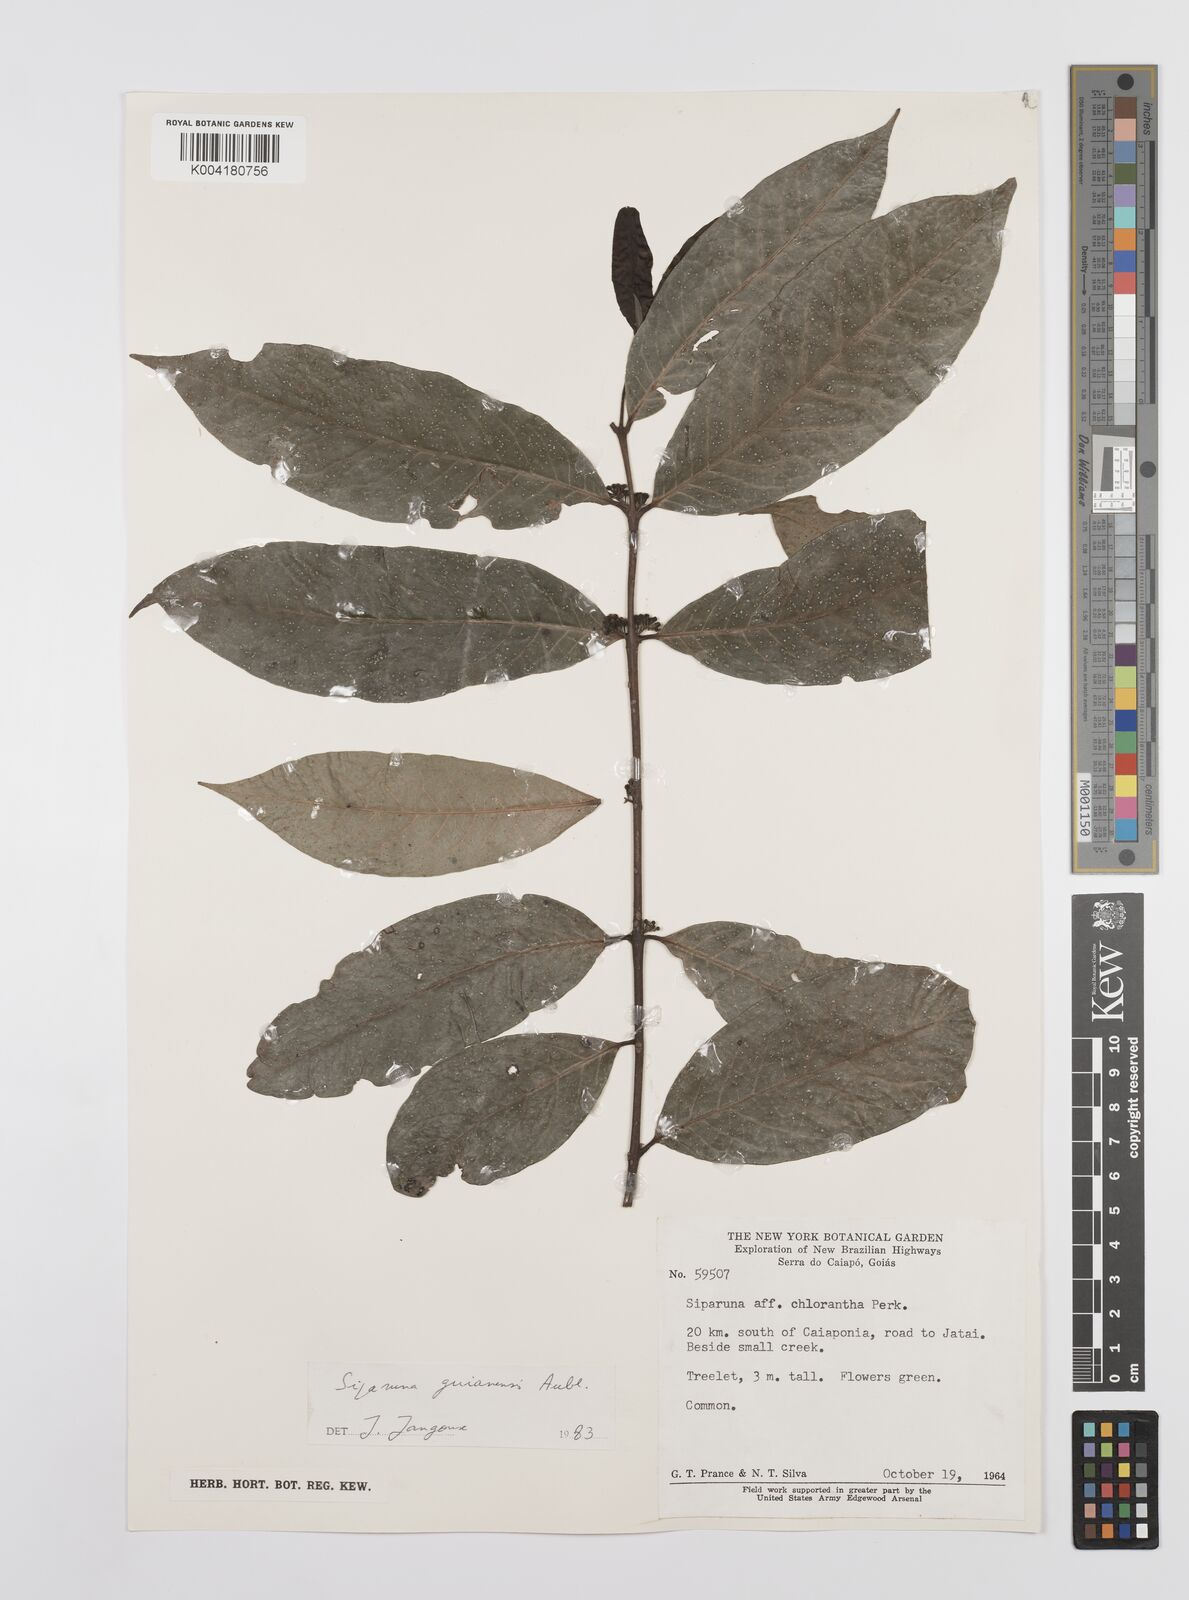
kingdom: Plantae
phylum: Tracheophyta
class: Magnoliopsida
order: Laurales
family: Siparunaceae
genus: Siparuna
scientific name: Siparuna guianensis
